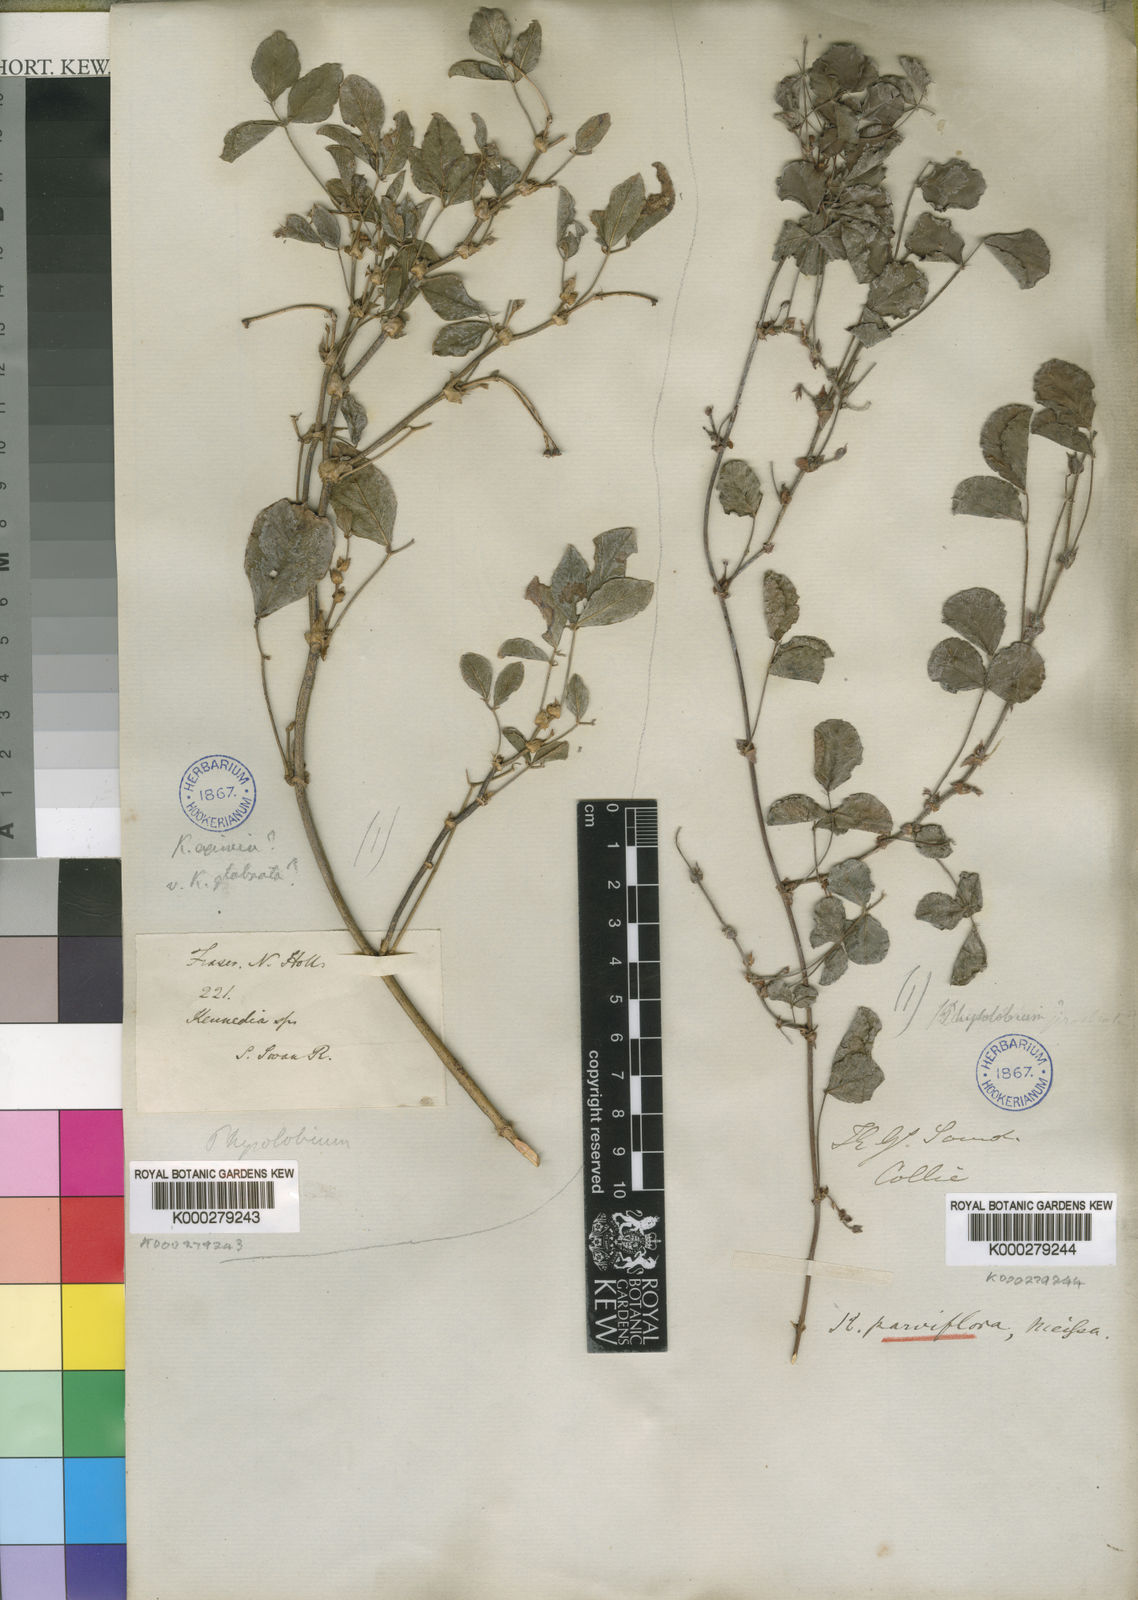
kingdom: Plantae
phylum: Tracheophyta
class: Magnoliopsida
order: Fabales
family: Fabaceae
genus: Kennedia
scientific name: Kennedia parviflora
